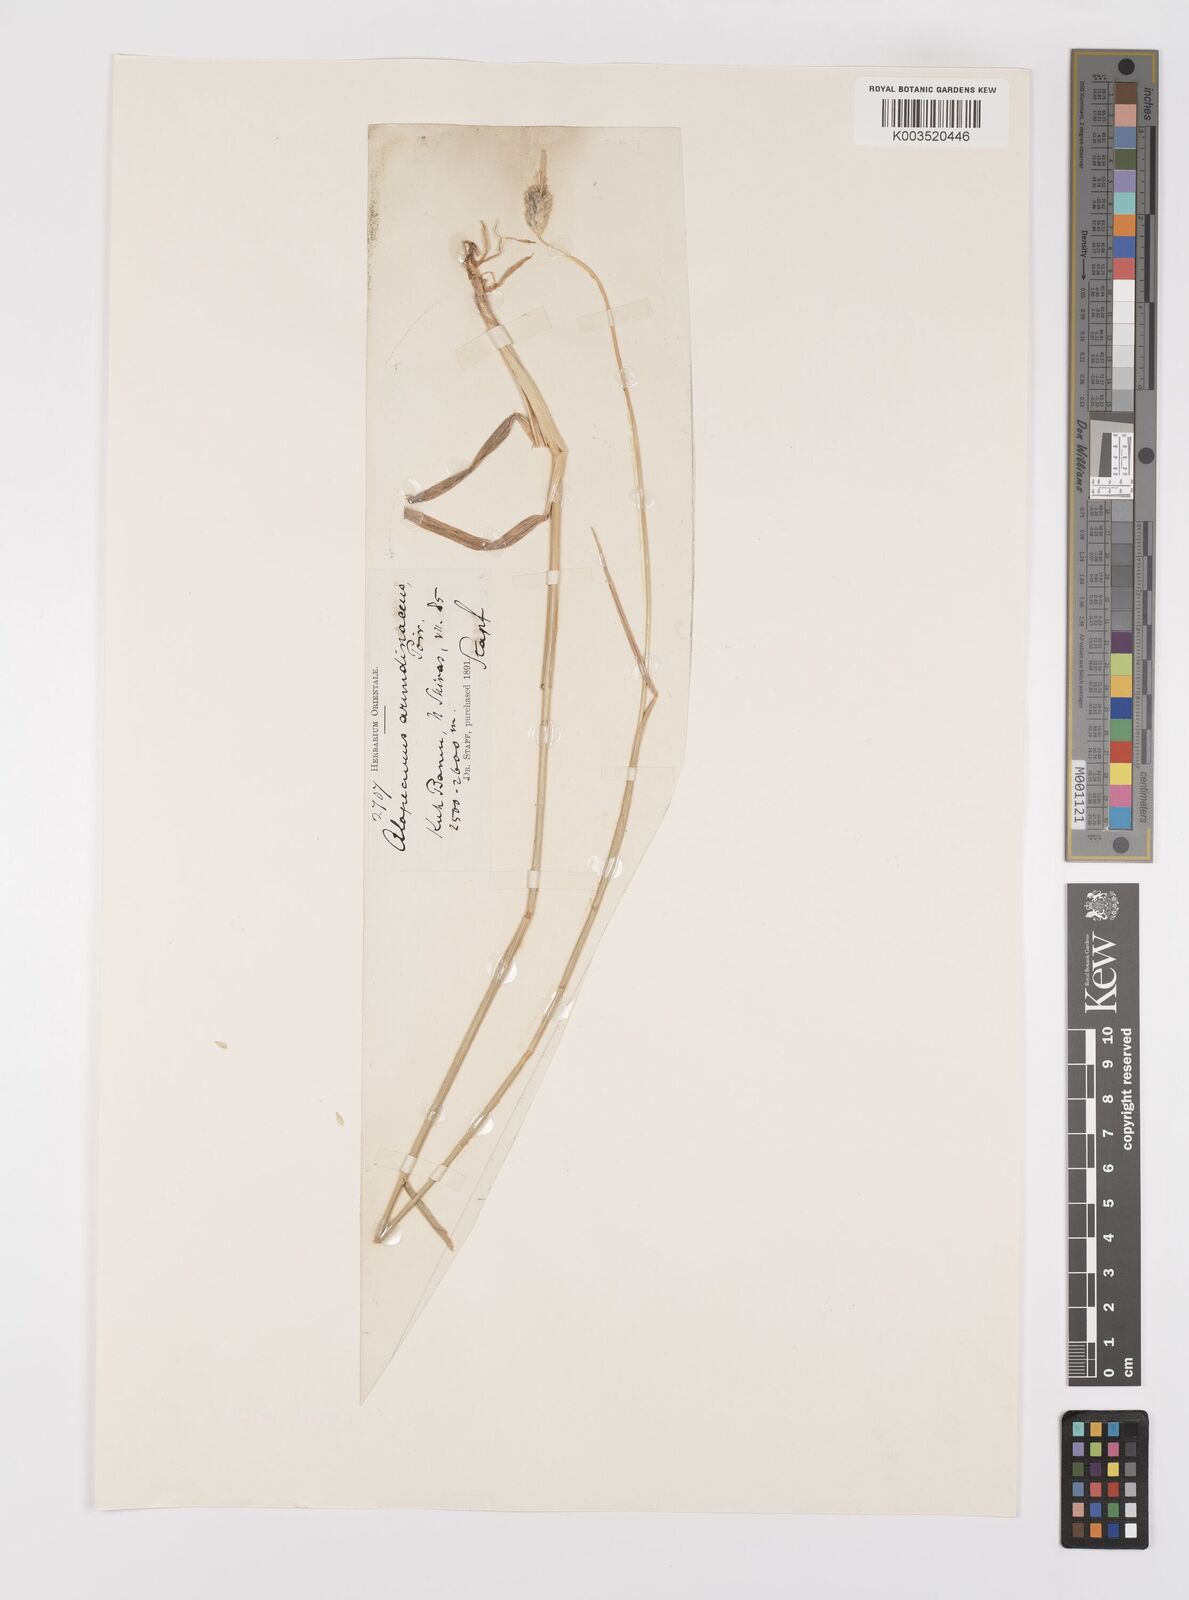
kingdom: Plantae
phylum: Tracheophyta
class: Liliopsida
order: Poales
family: Poaceae
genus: Alopecurus
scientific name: Alopecurus arundinaceus
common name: Creeping meadow foxtail
